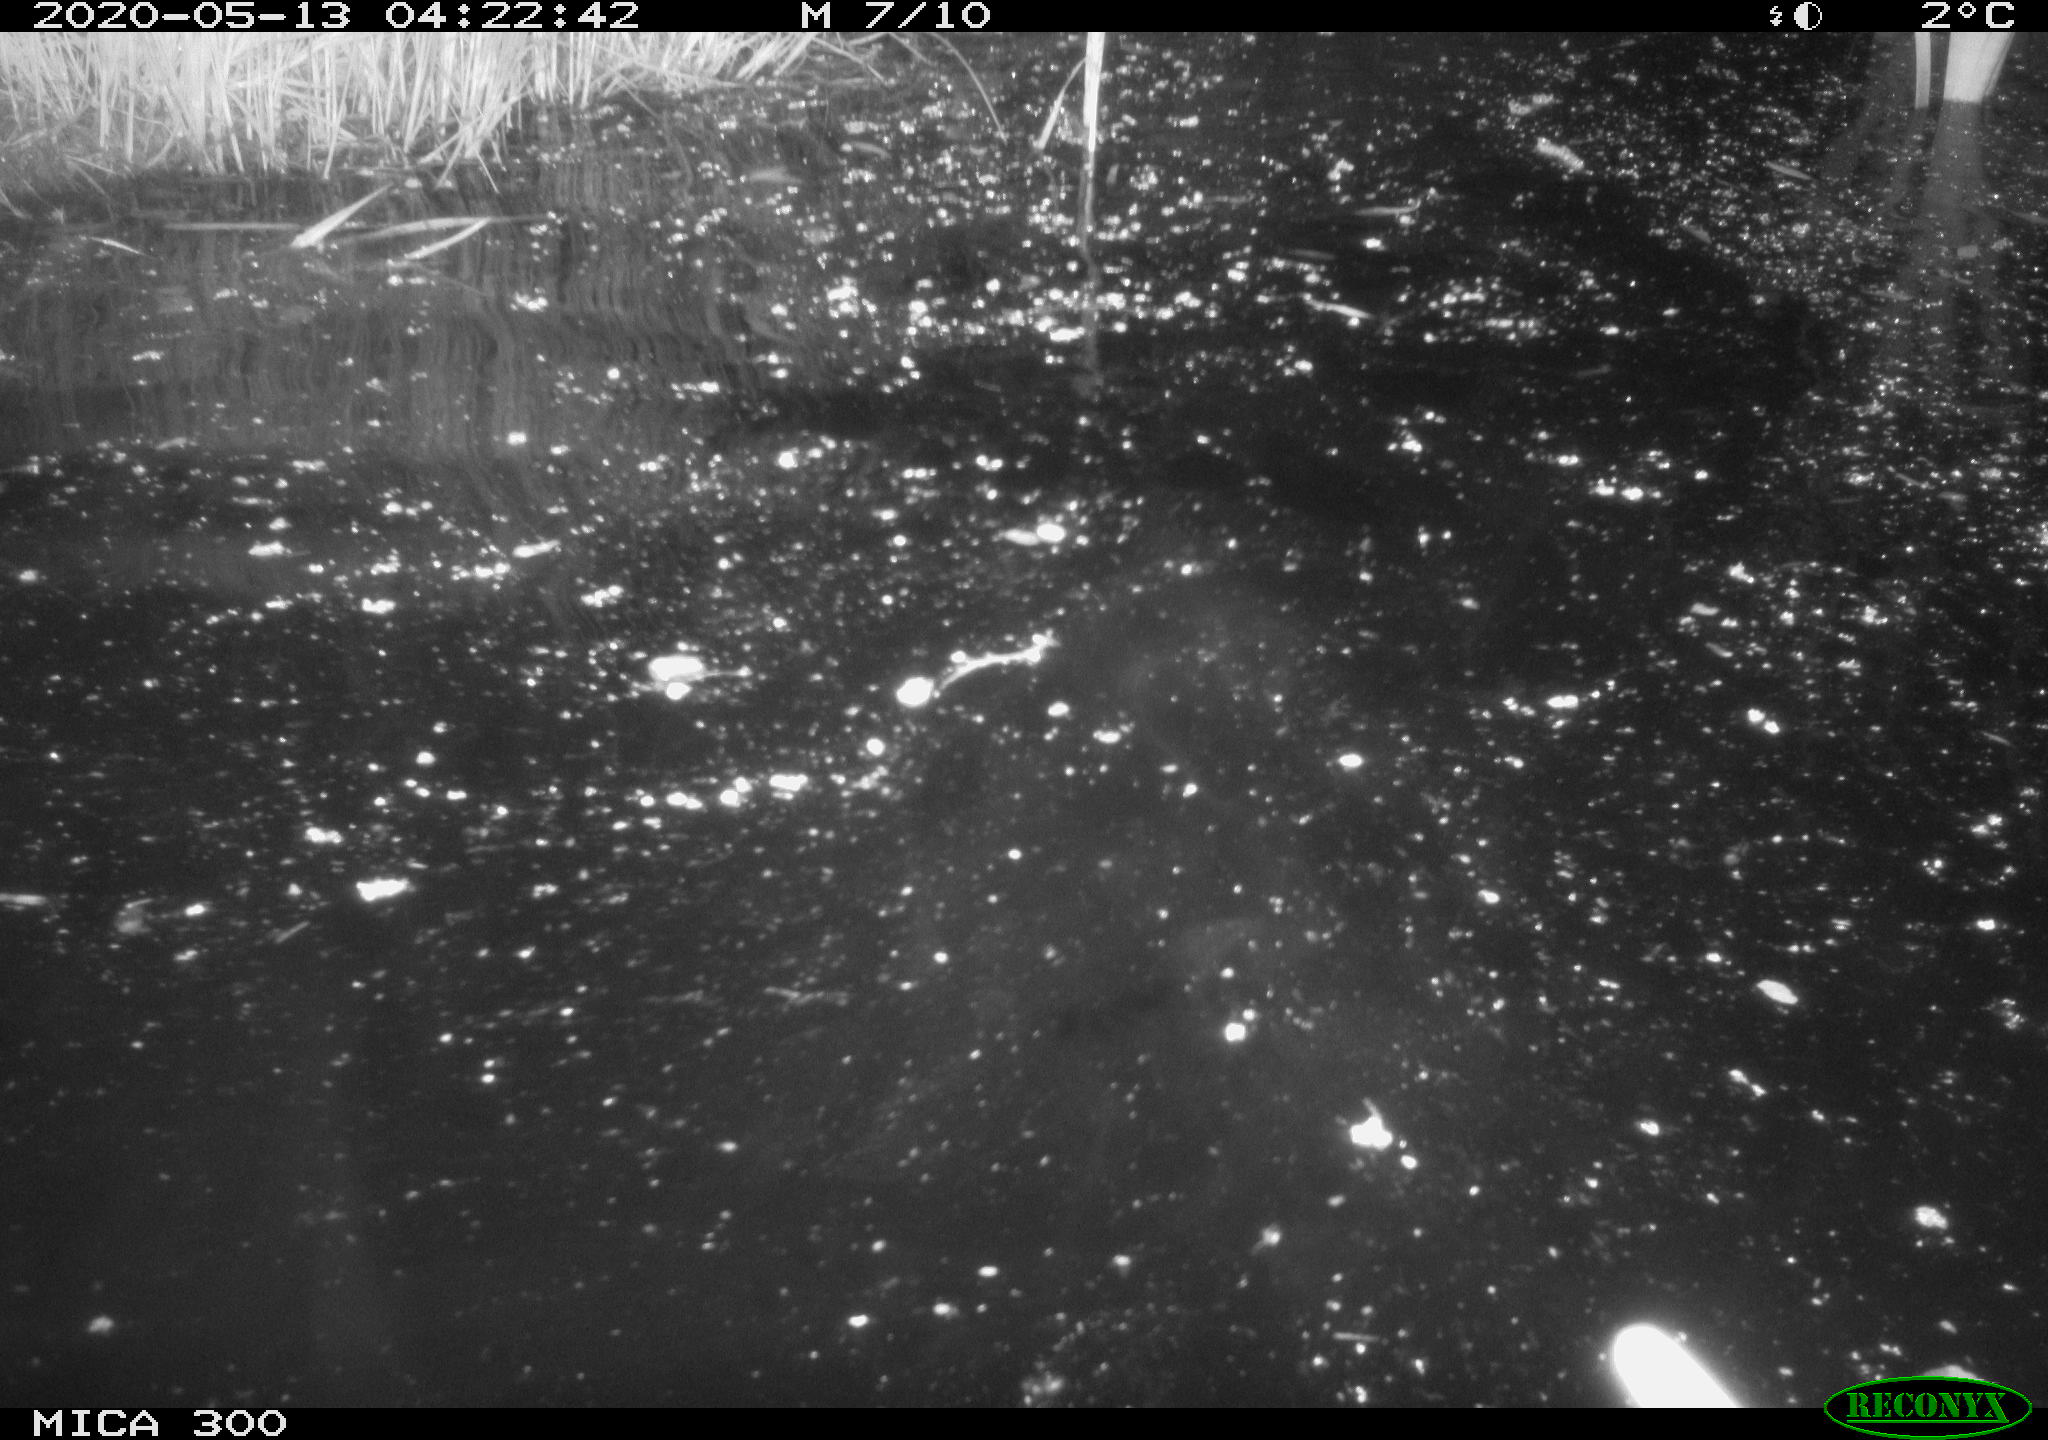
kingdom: Animalia
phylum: Chordata
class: Mammalia
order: Rodentia
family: Castoridae
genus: Castor
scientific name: Castor fiber
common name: Eurasian beaver
